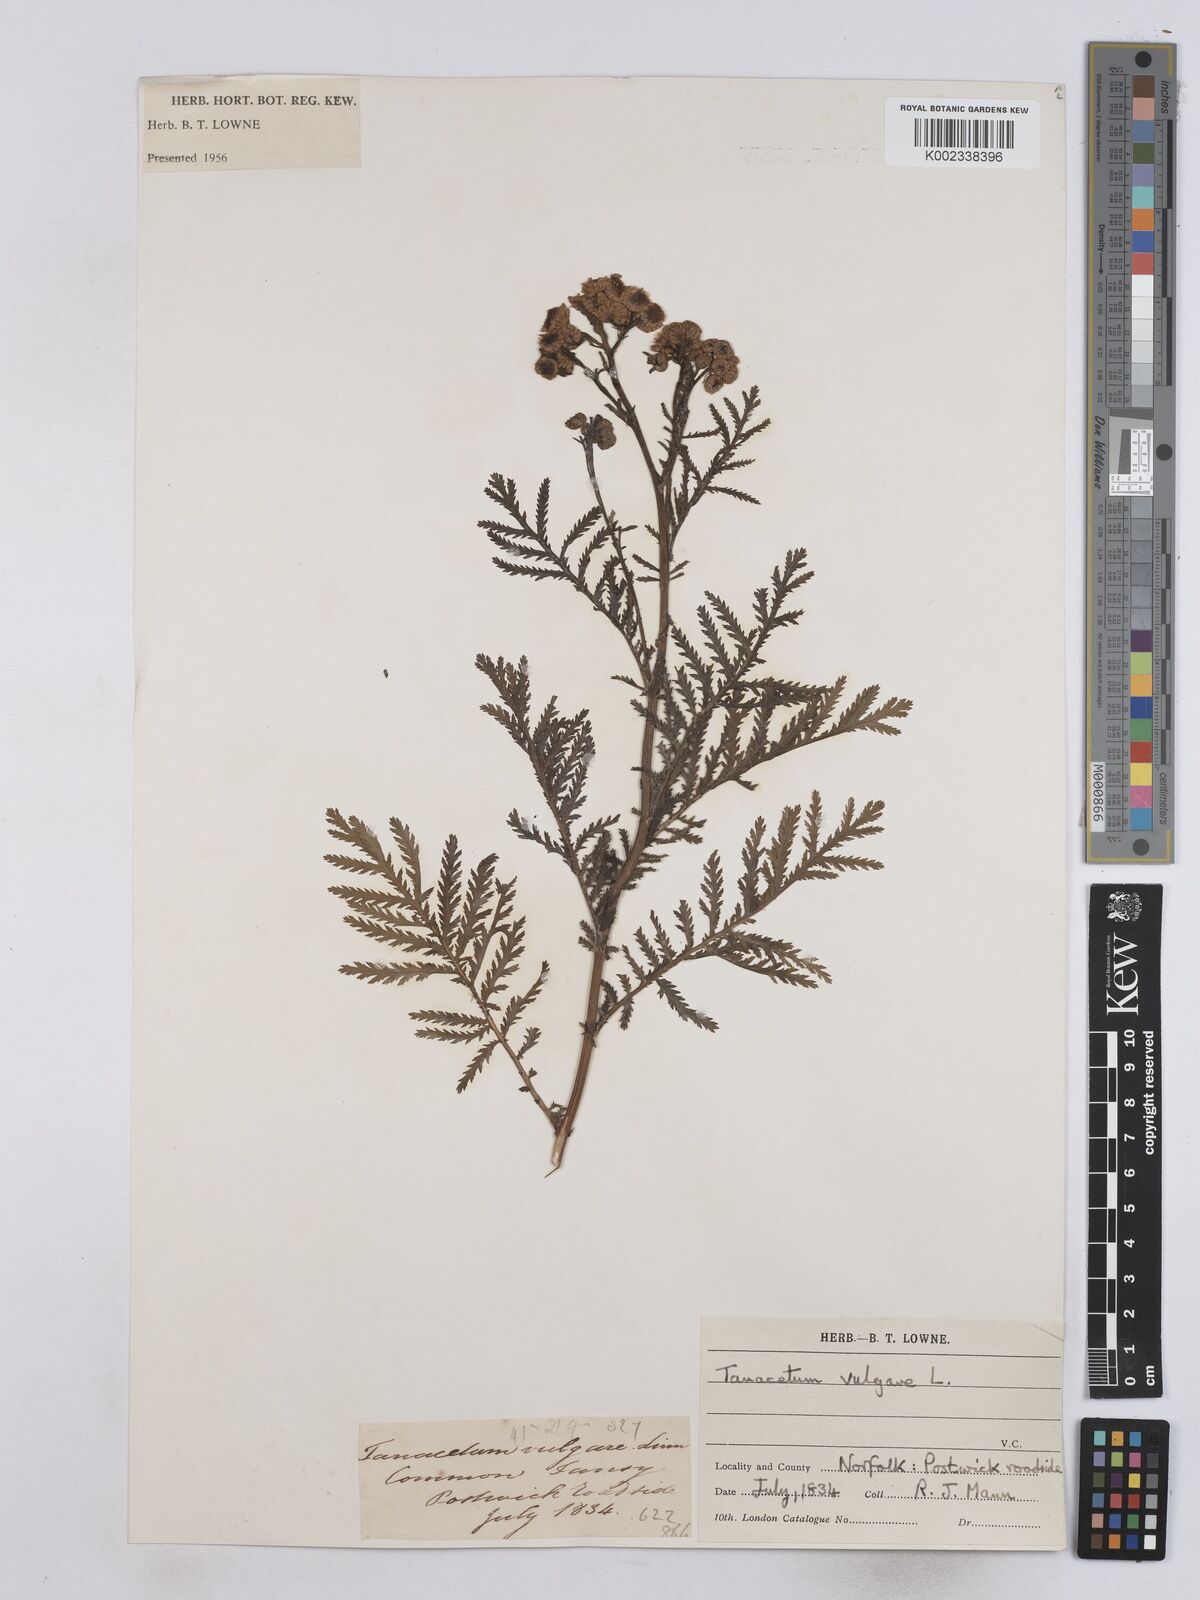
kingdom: Plantae
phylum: Tracheophyta
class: Magnoliopsida
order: Asterales
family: Asteraceae
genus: Tanacetum
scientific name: Tanacetum vulgare
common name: Common tansy
